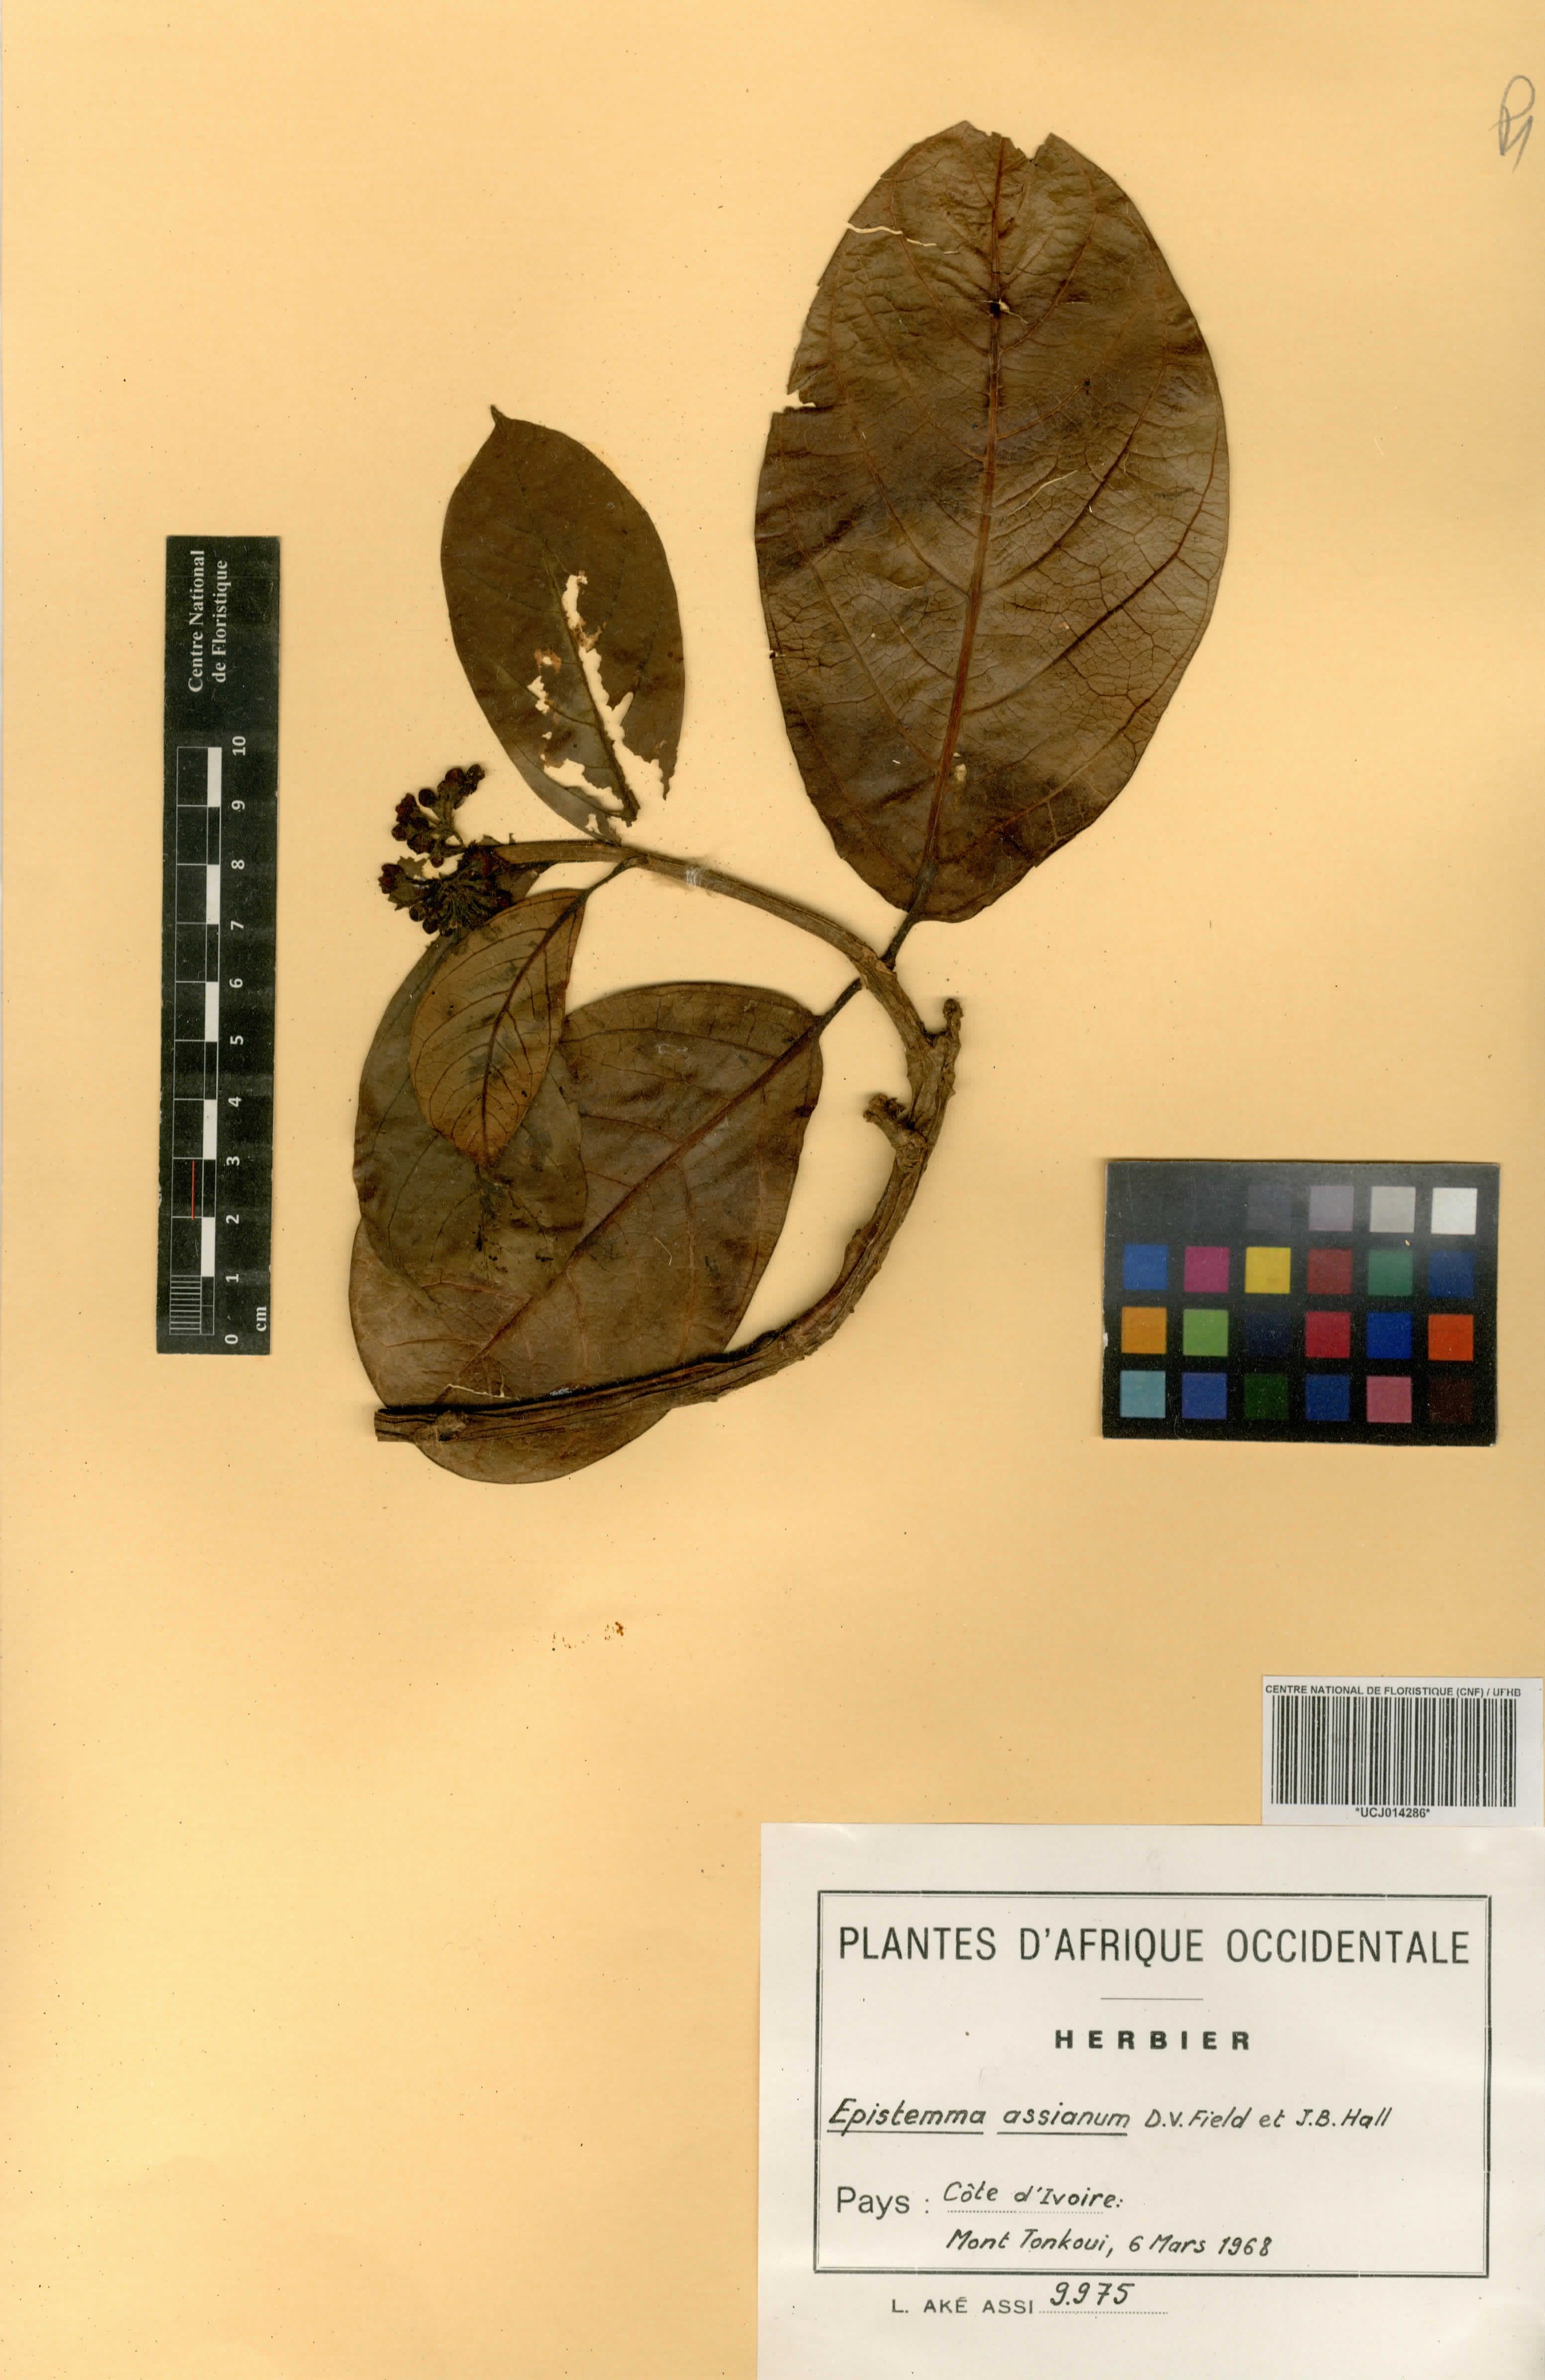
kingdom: Plantae
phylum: Tracheophyta
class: Magnoliopsida
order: Gentianales
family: Apocynaceae
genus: Epistemma
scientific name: Epistemma assianum
